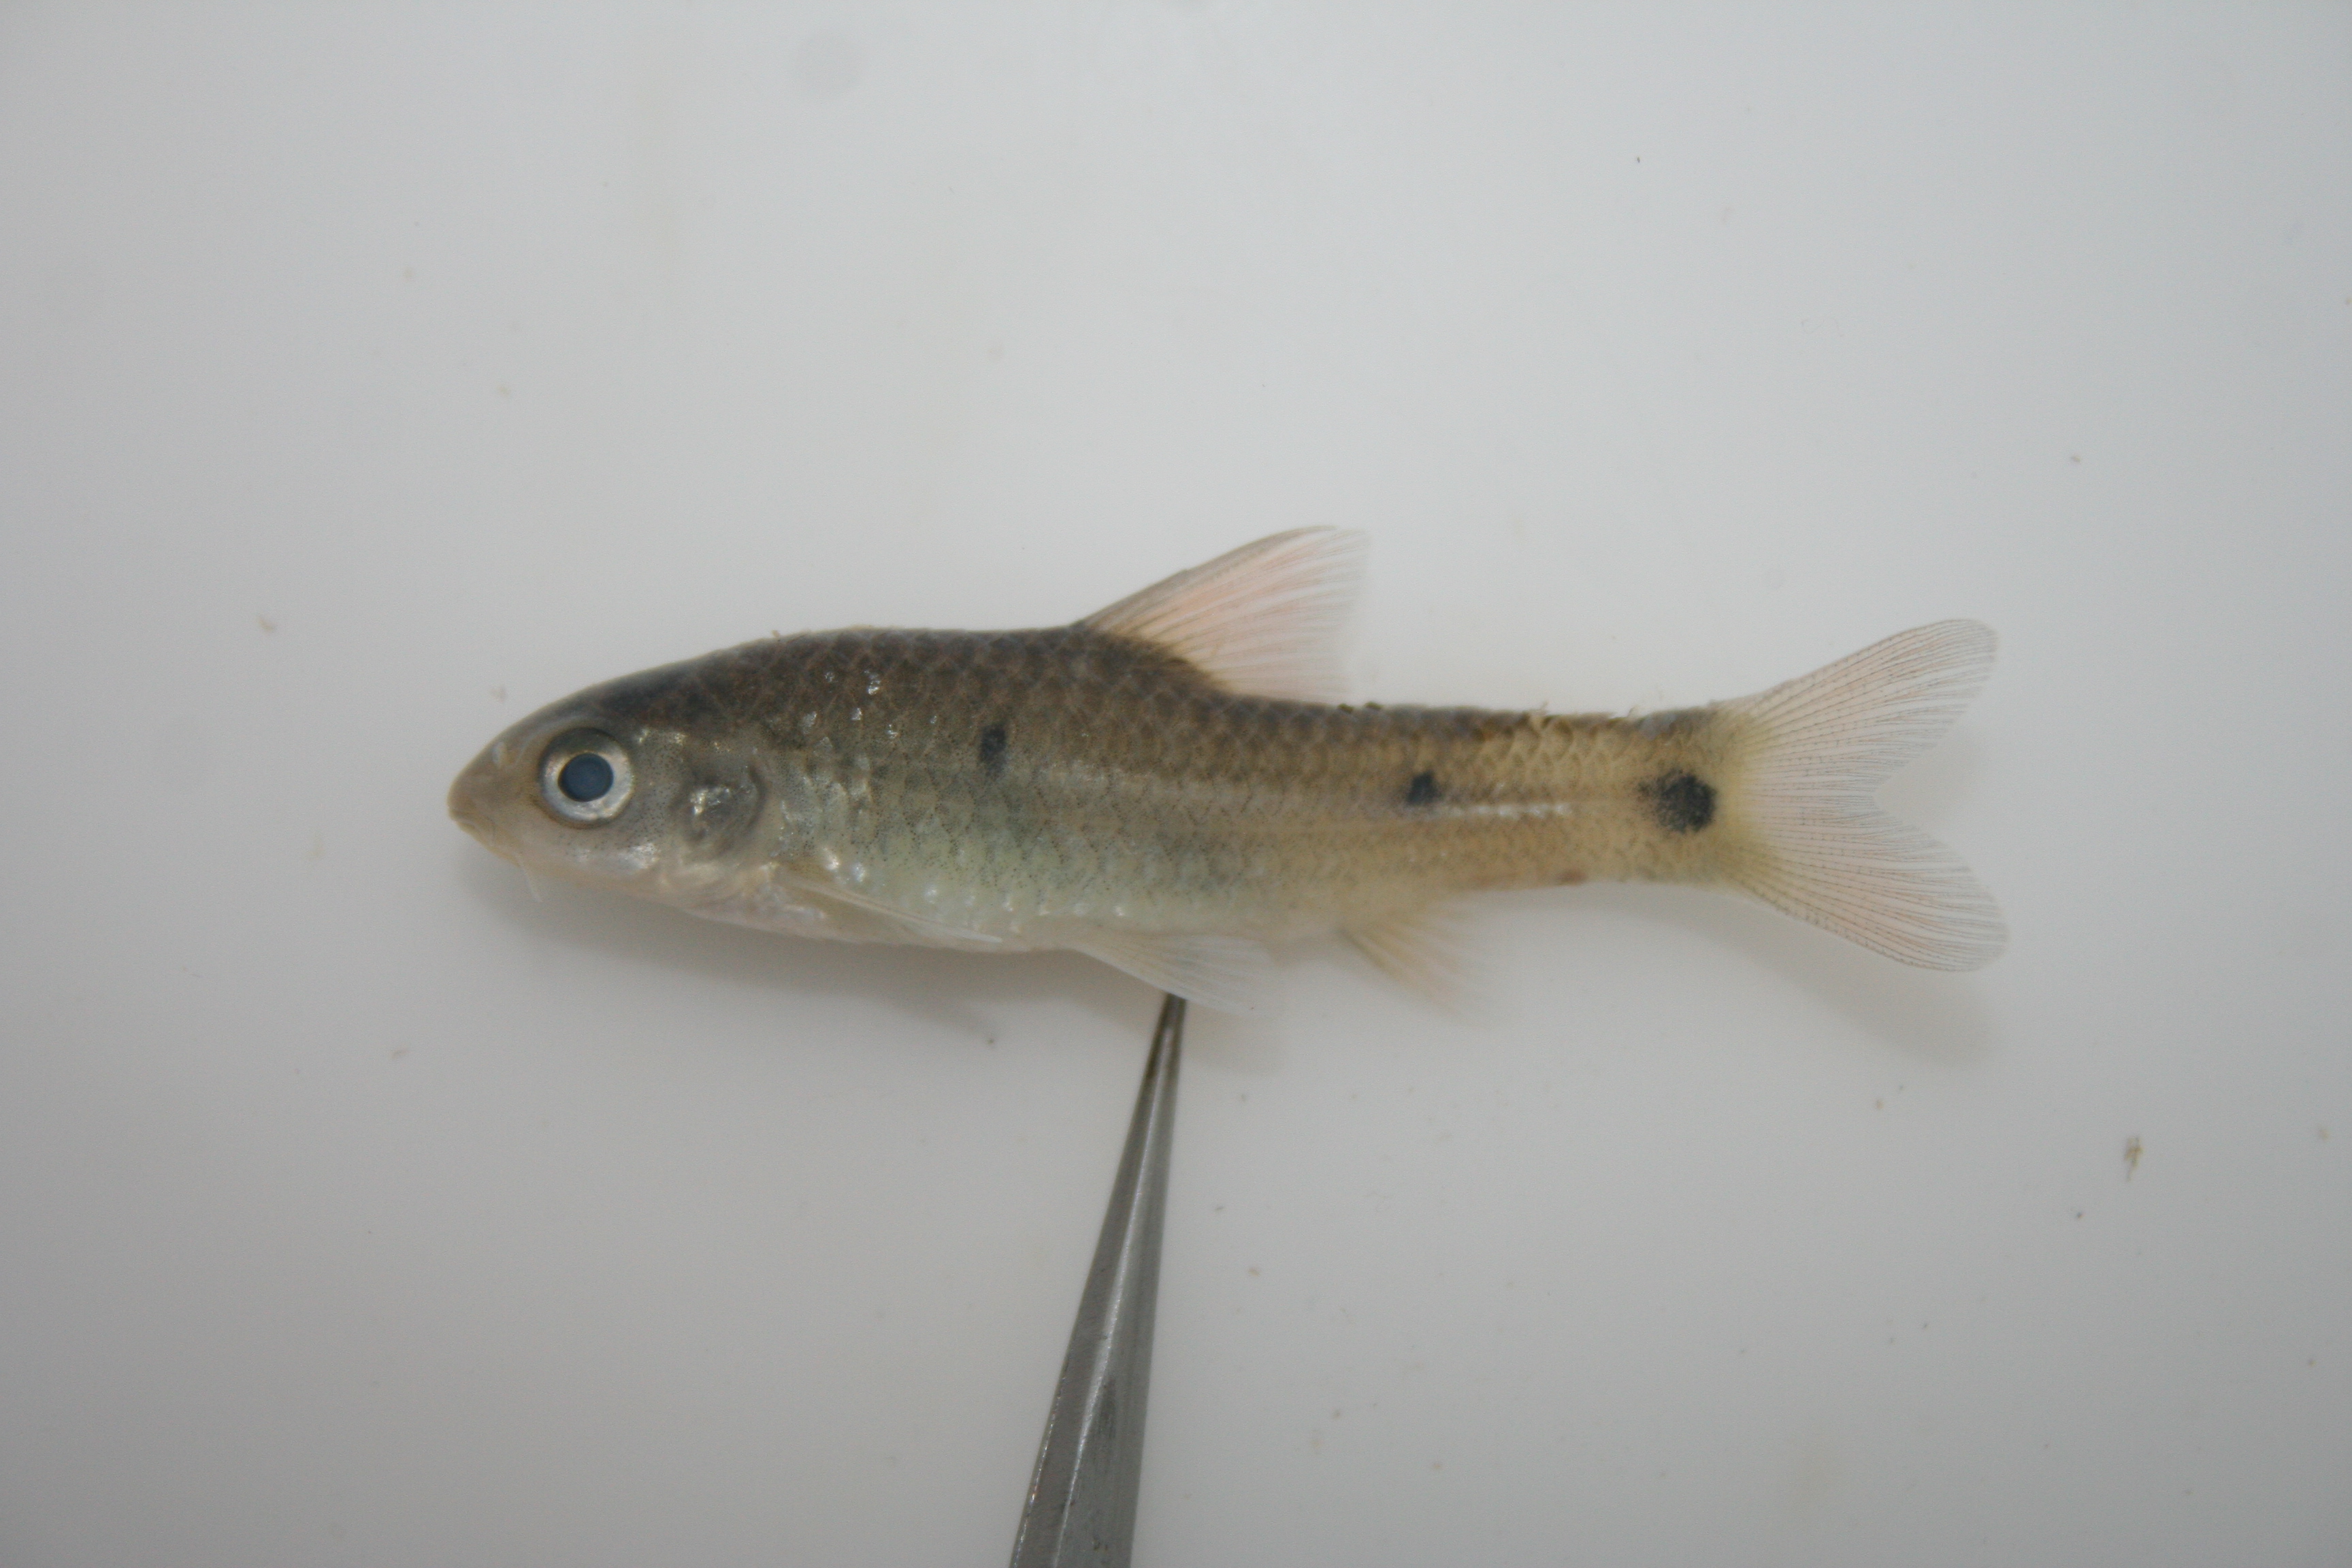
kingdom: Animalia
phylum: Chordata
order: Cypriniformes
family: Cyprinidae
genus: Barbus
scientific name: Barbus
